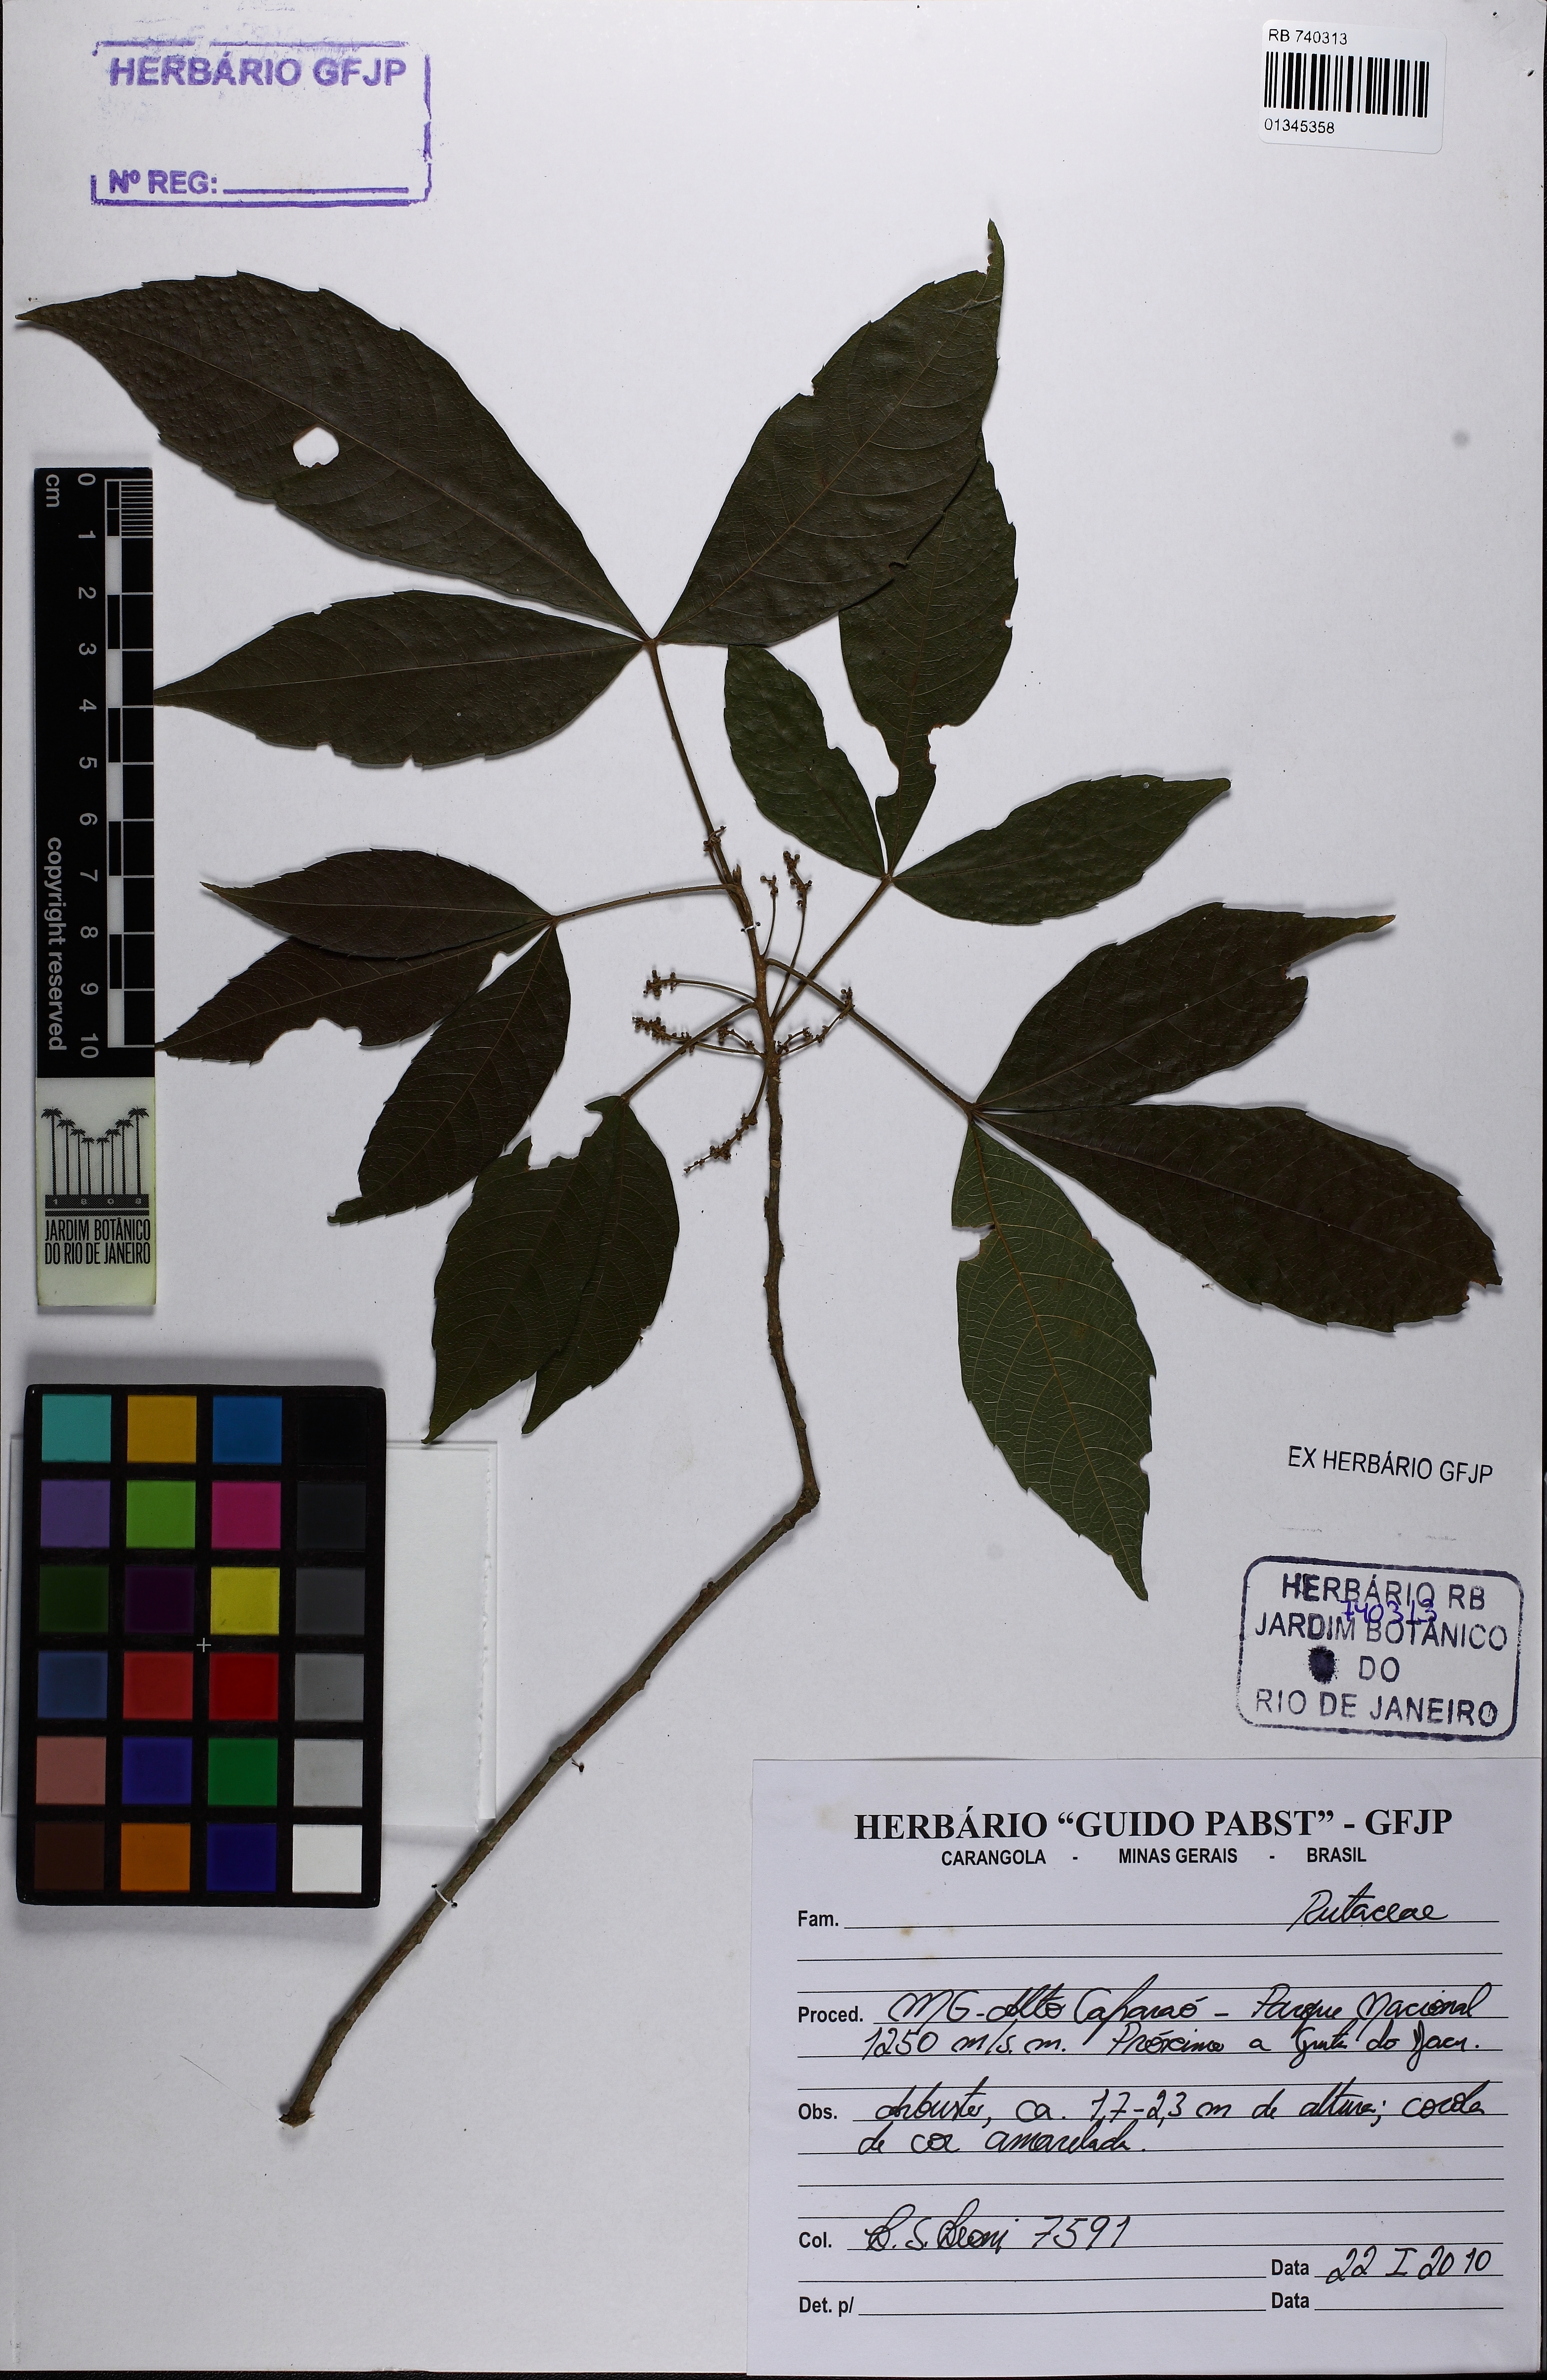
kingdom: Plantae
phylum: Tracheophyta
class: Magnoliopsida
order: Sapindales
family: Sapindaceae
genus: Allophylus
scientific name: Allophylus
